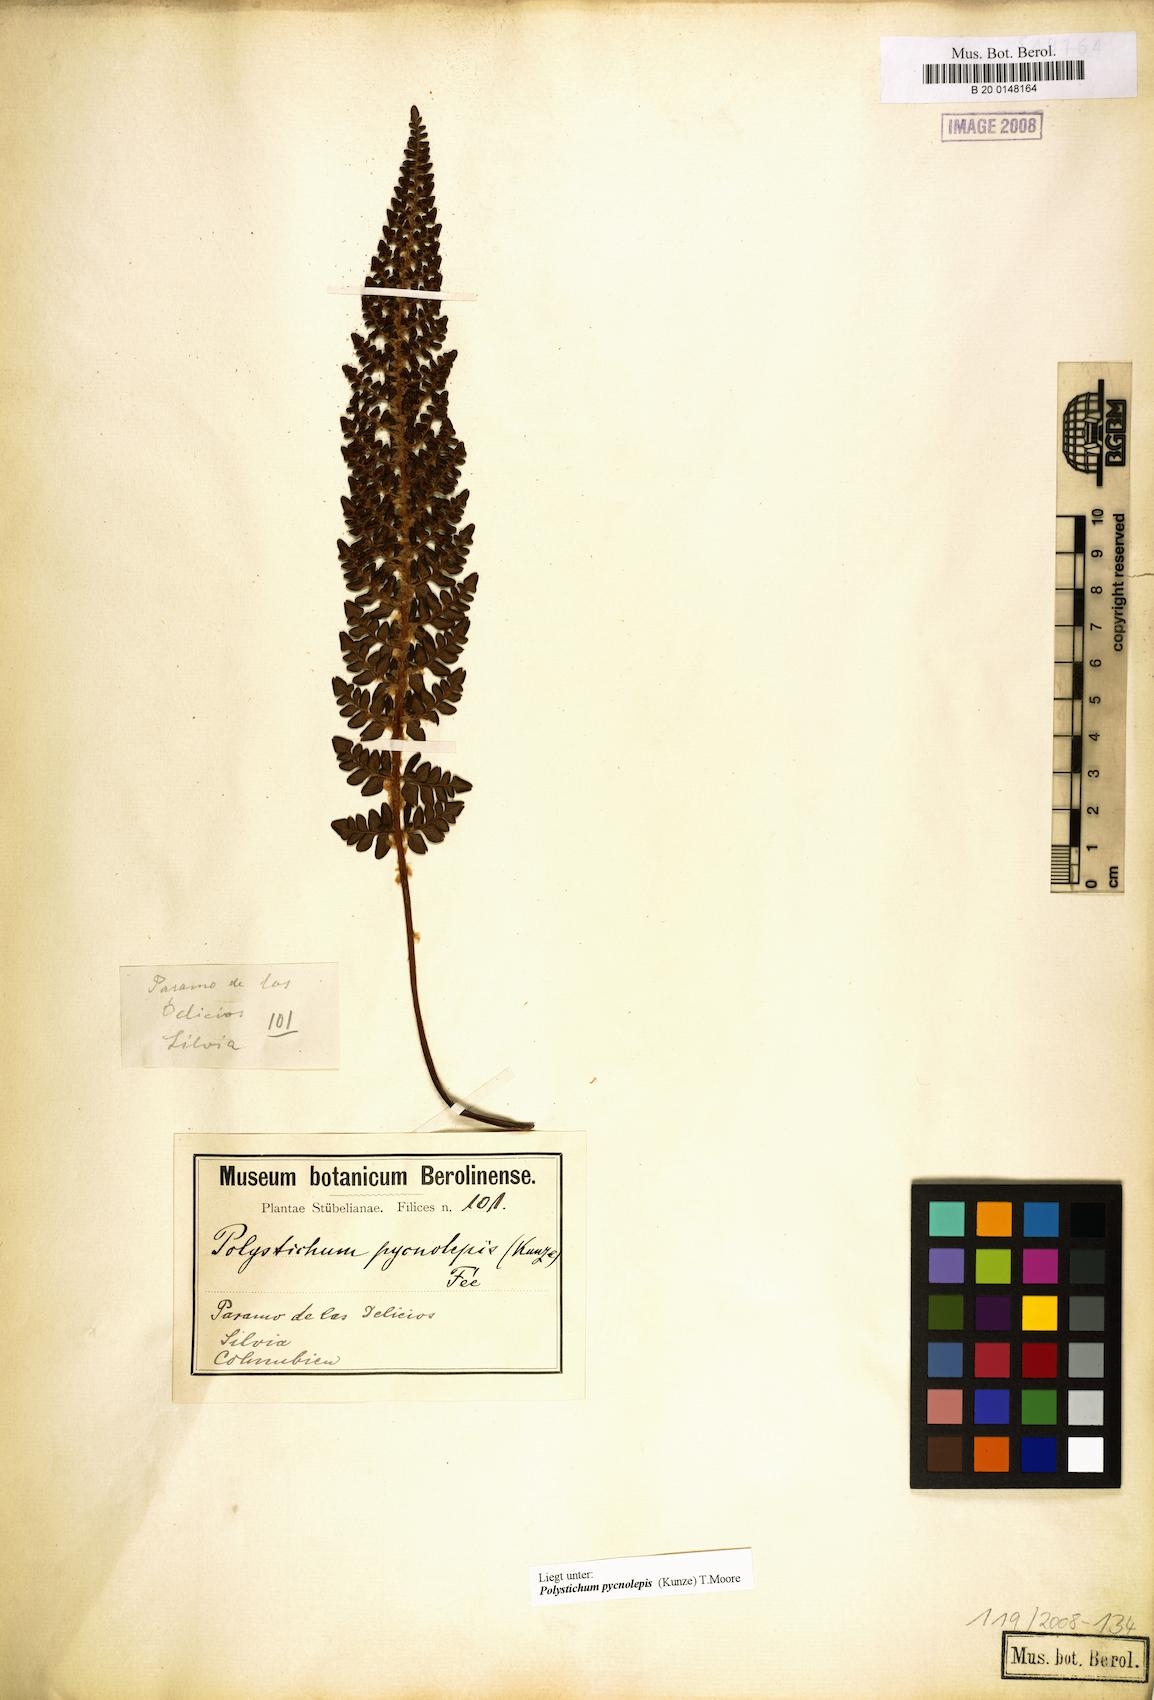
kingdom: Plantae
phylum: Tracheophyta
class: Polypodiopsida
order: Polypodiales
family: Dryopteridaceae
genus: Polystichum
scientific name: Polystichum pycnolepis
